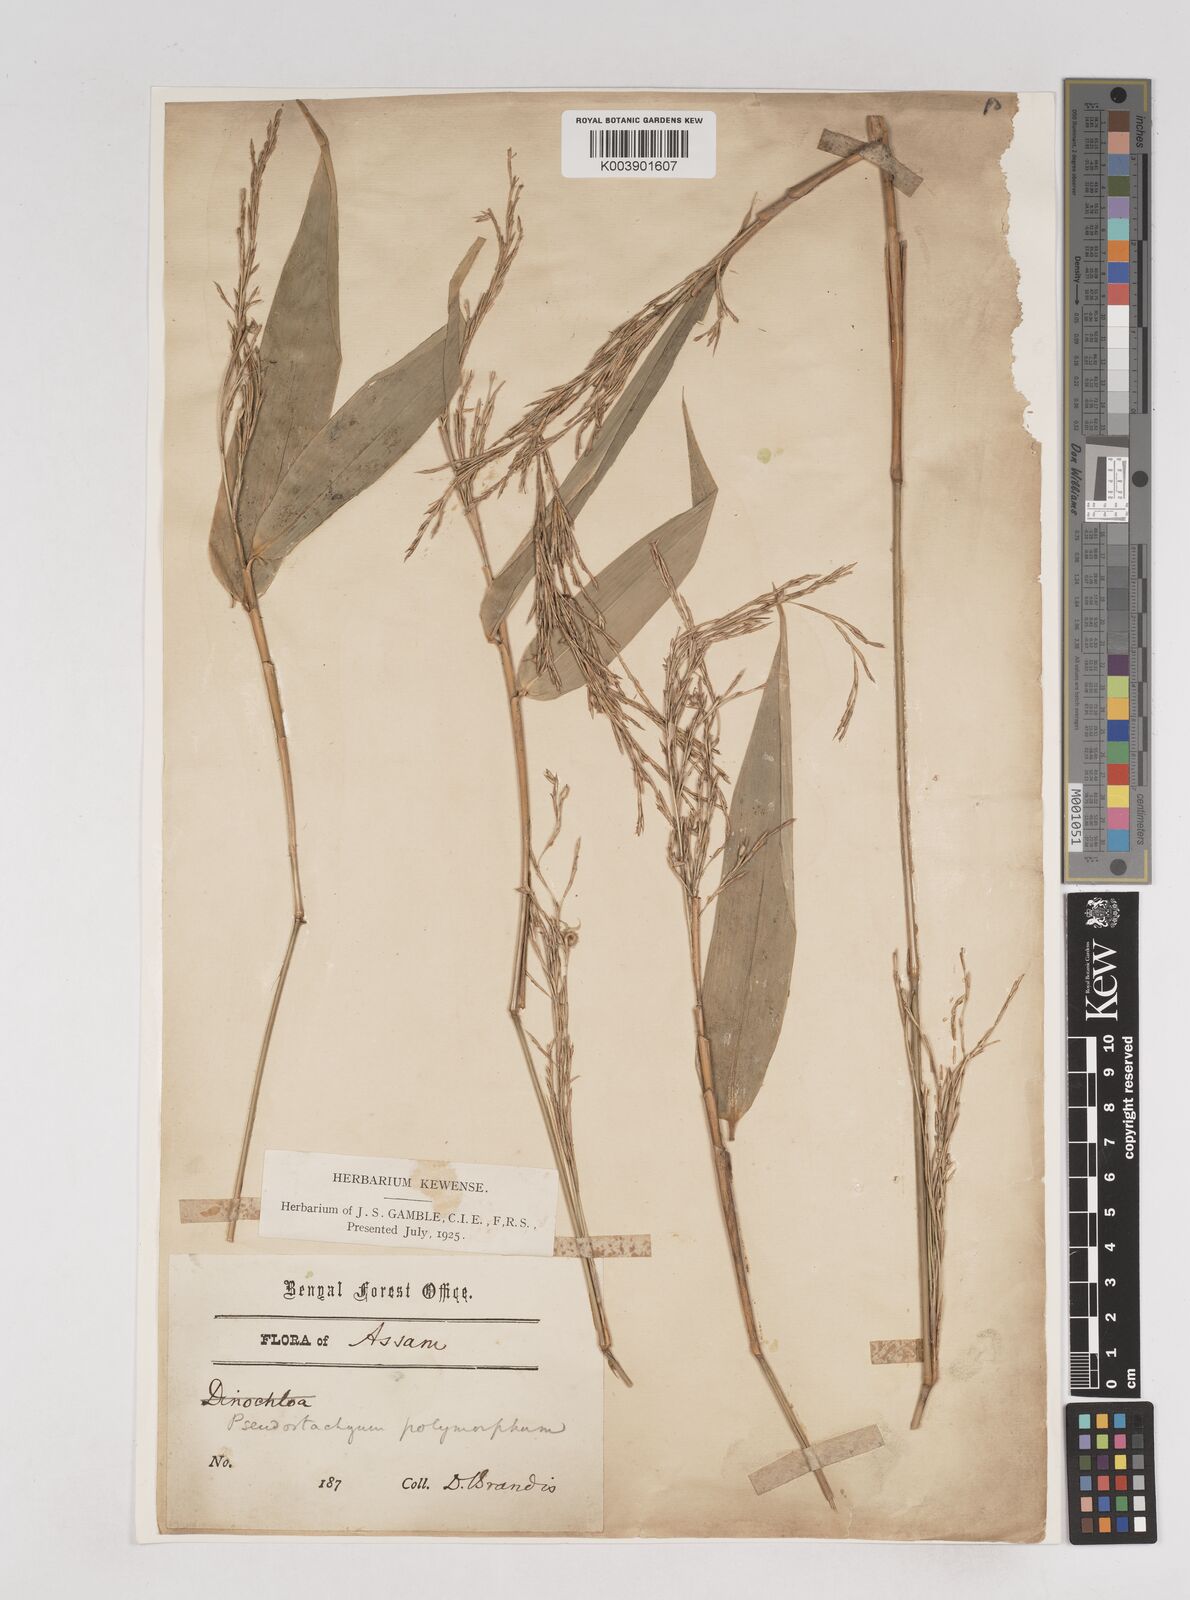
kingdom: Plantae
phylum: Tracheophyta
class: Liliopsida
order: Poales
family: Poaceae
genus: Pseudostachyum
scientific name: Pseudostachyum polymorphum
